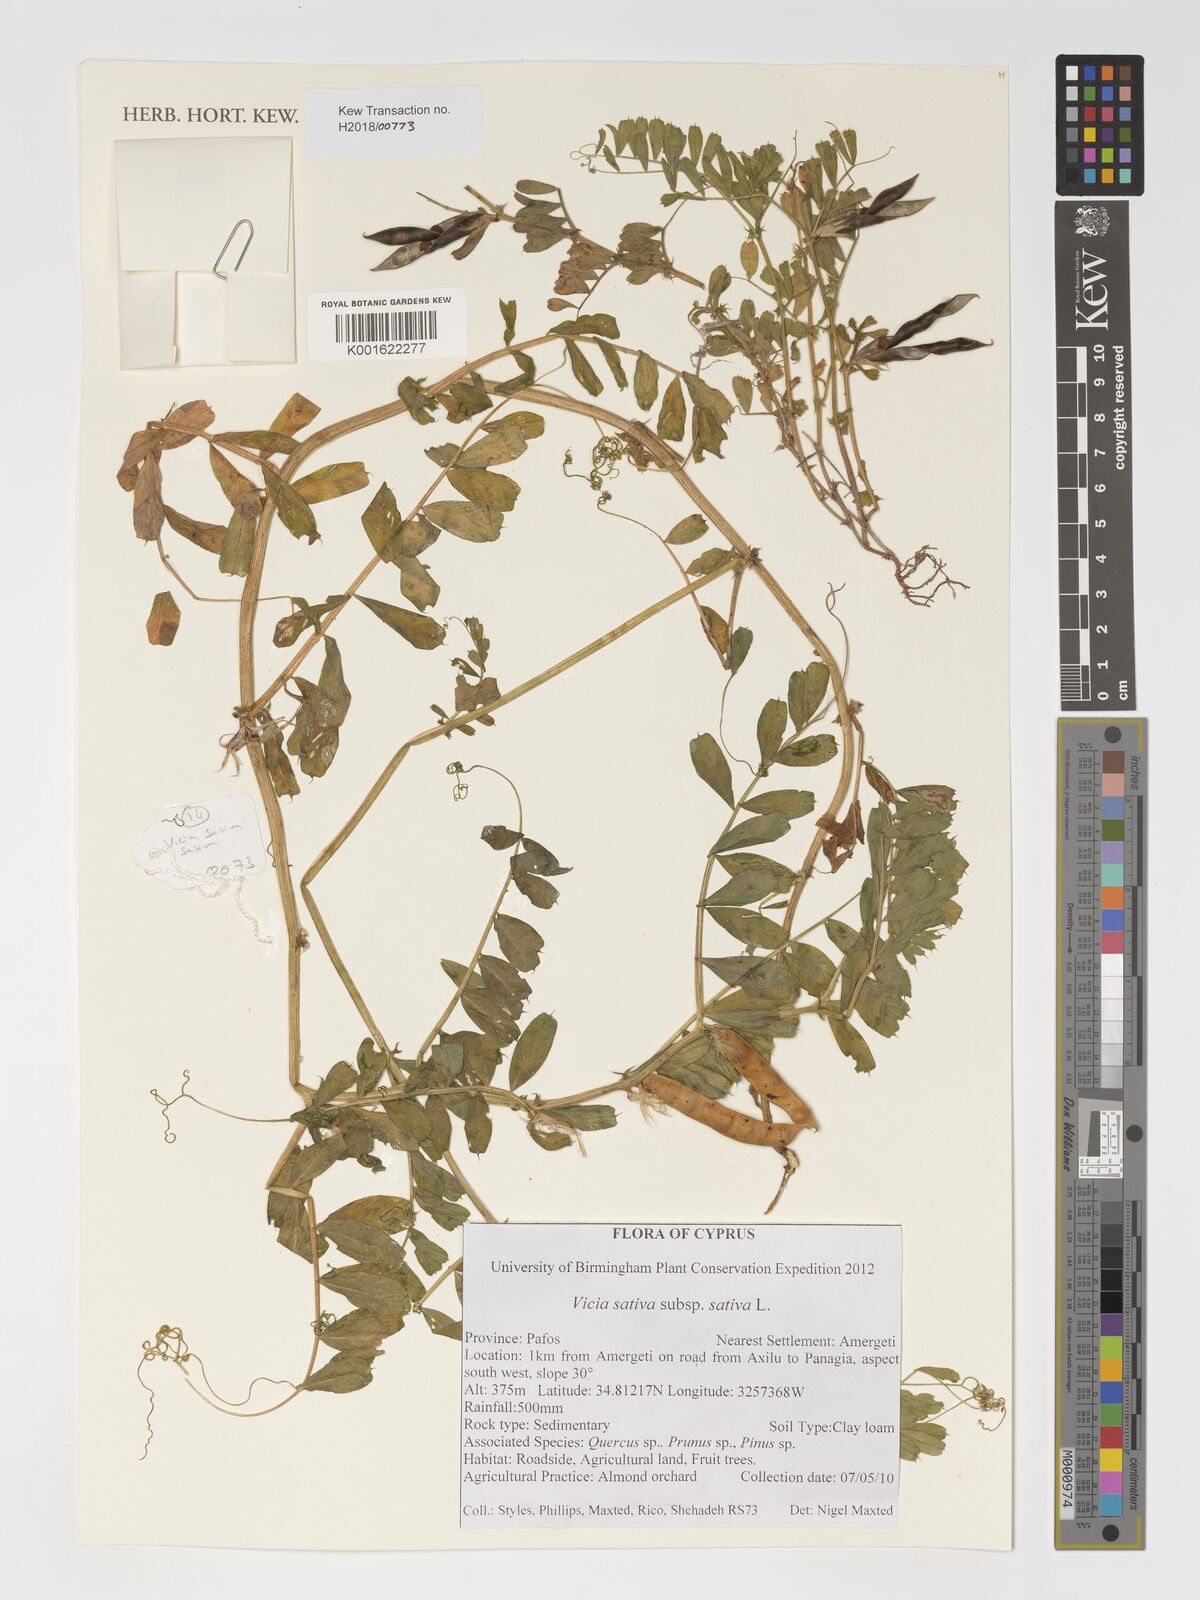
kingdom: Plantae
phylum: Tracheophyta
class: Magnoliopsida
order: Fabales
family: Fabaceae
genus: Vicia
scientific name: Vicia sativa
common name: Garden vetch
